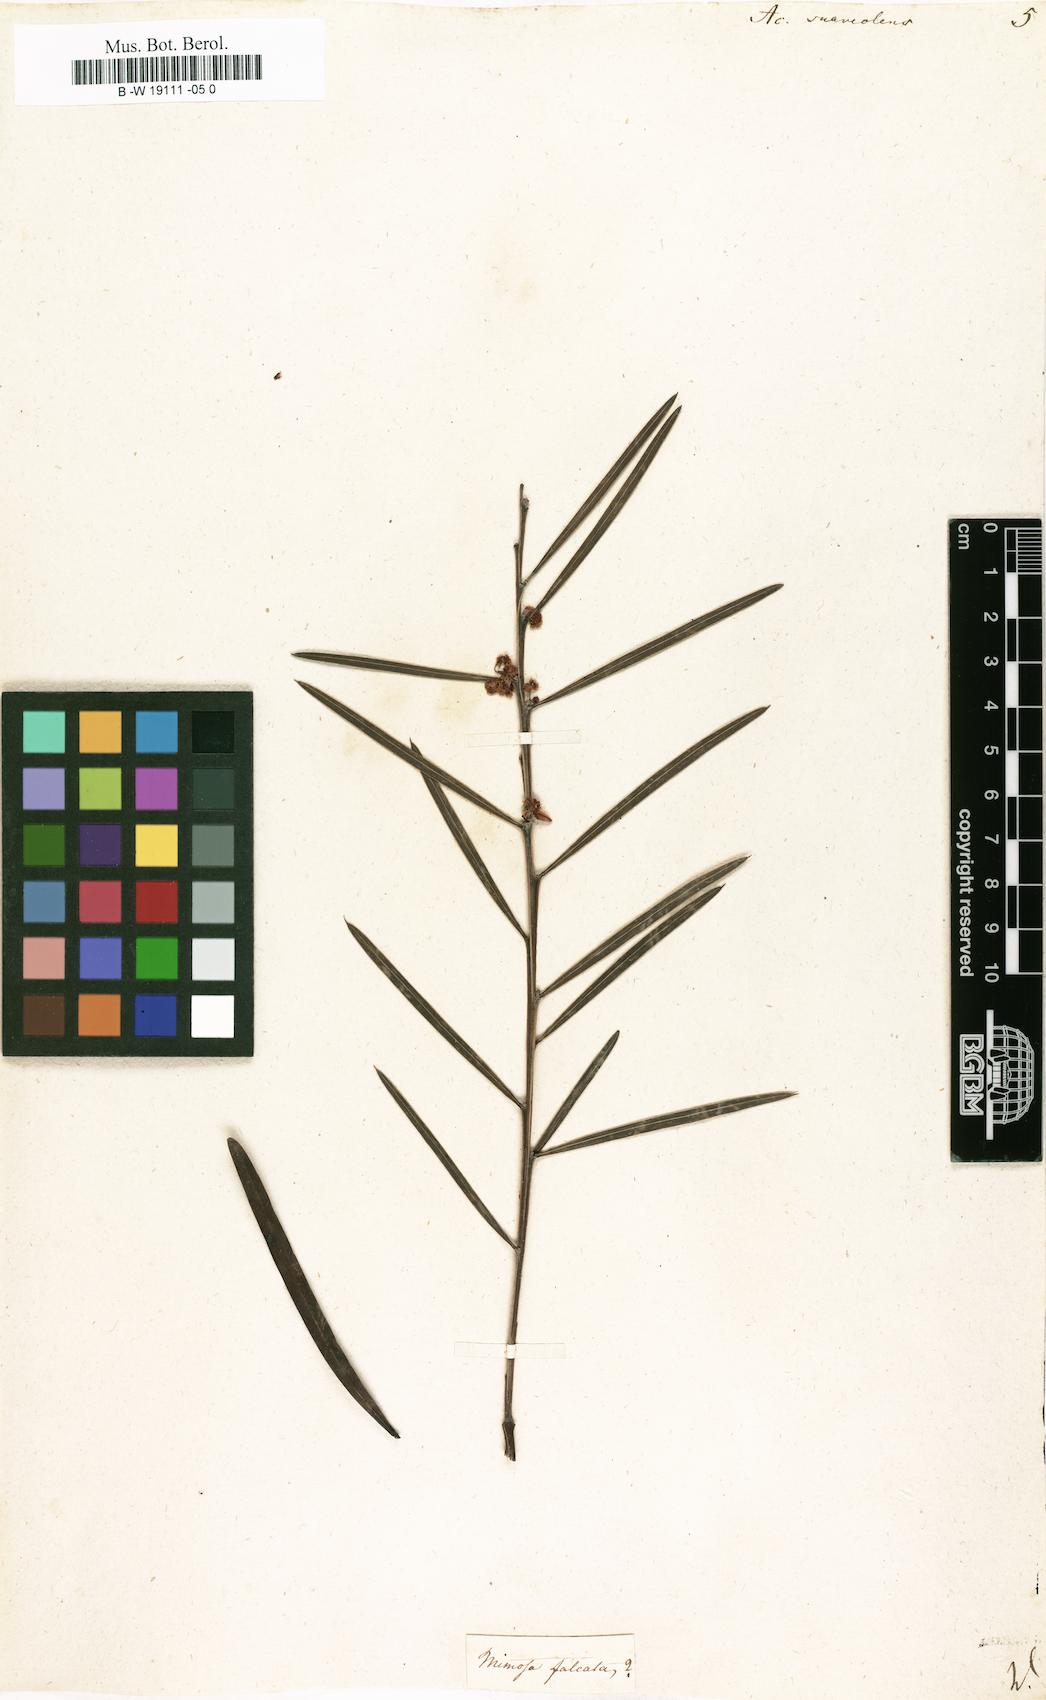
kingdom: Plantae
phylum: Tracheophyta
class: Magnoliopsida
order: Fabales
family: Fabaceae
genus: Acacia
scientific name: Acacia suaveolens
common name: Sweet acacia
